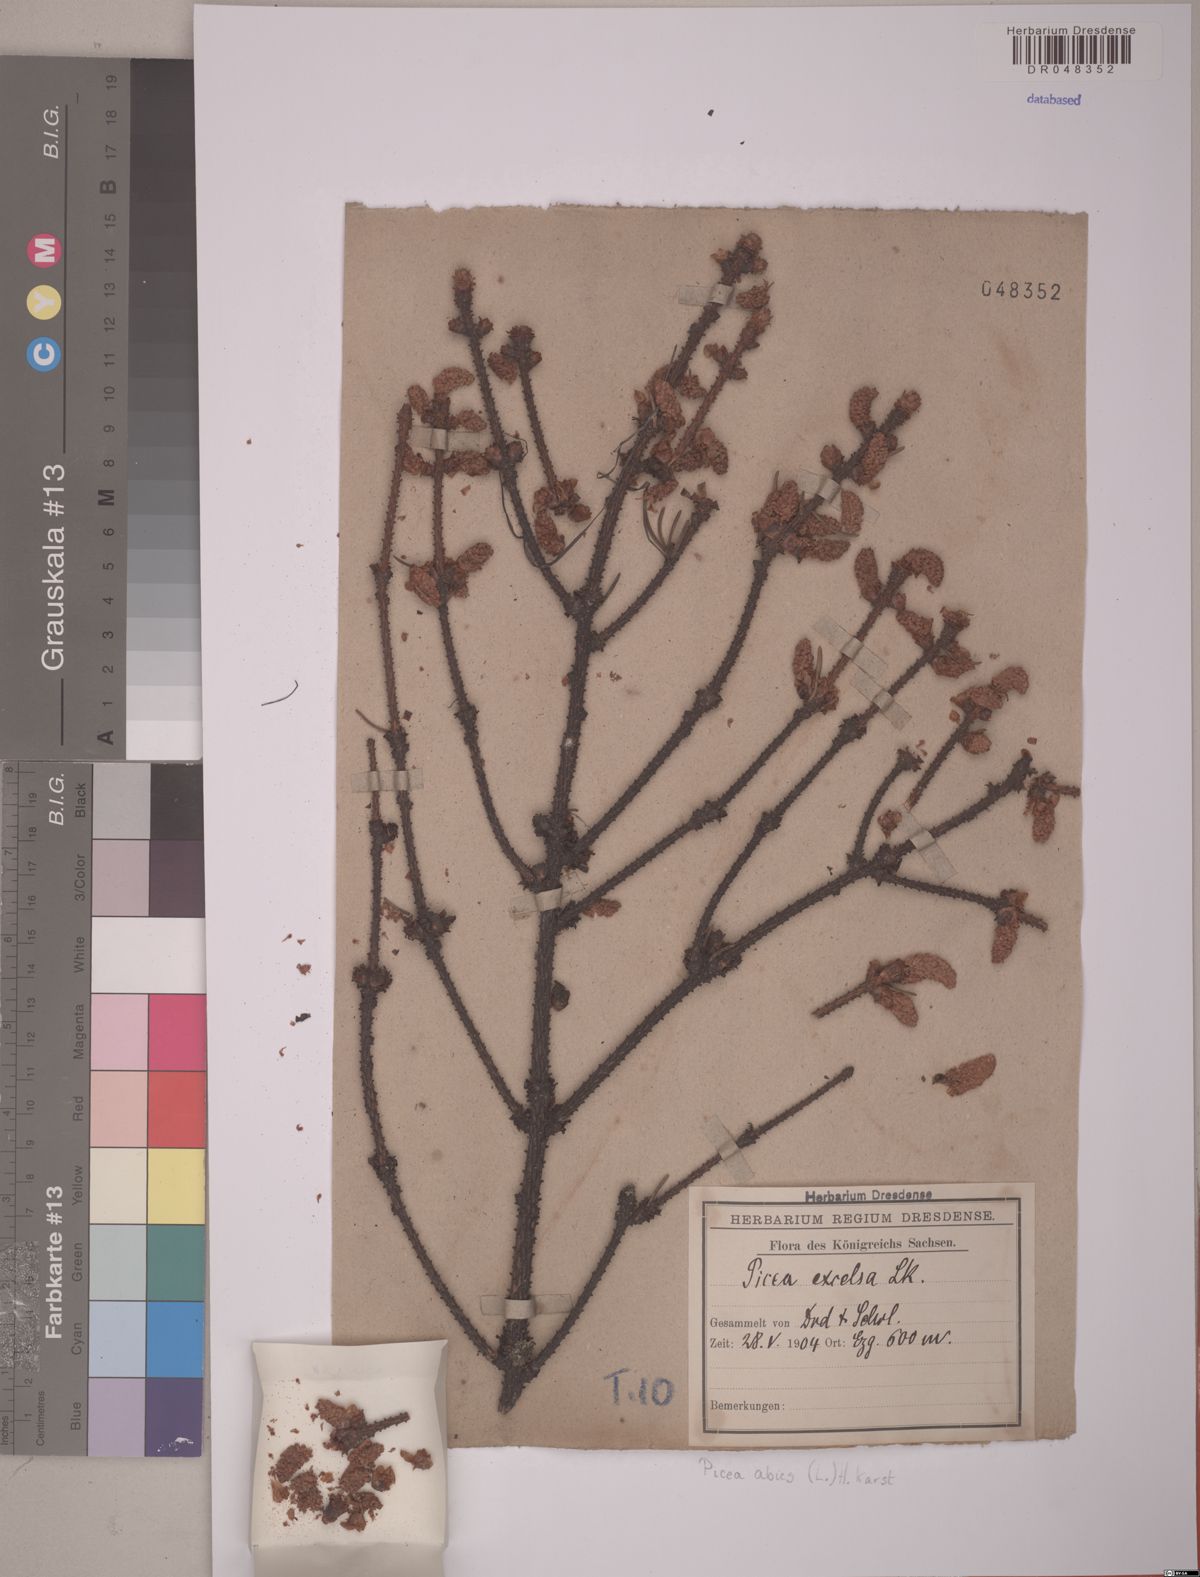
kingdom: Plantae
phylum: Tracheophyta
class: Pinopsida
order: Pinales
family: Pinaceae
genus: Picea
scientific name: Picea abies
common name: Norway spruce
